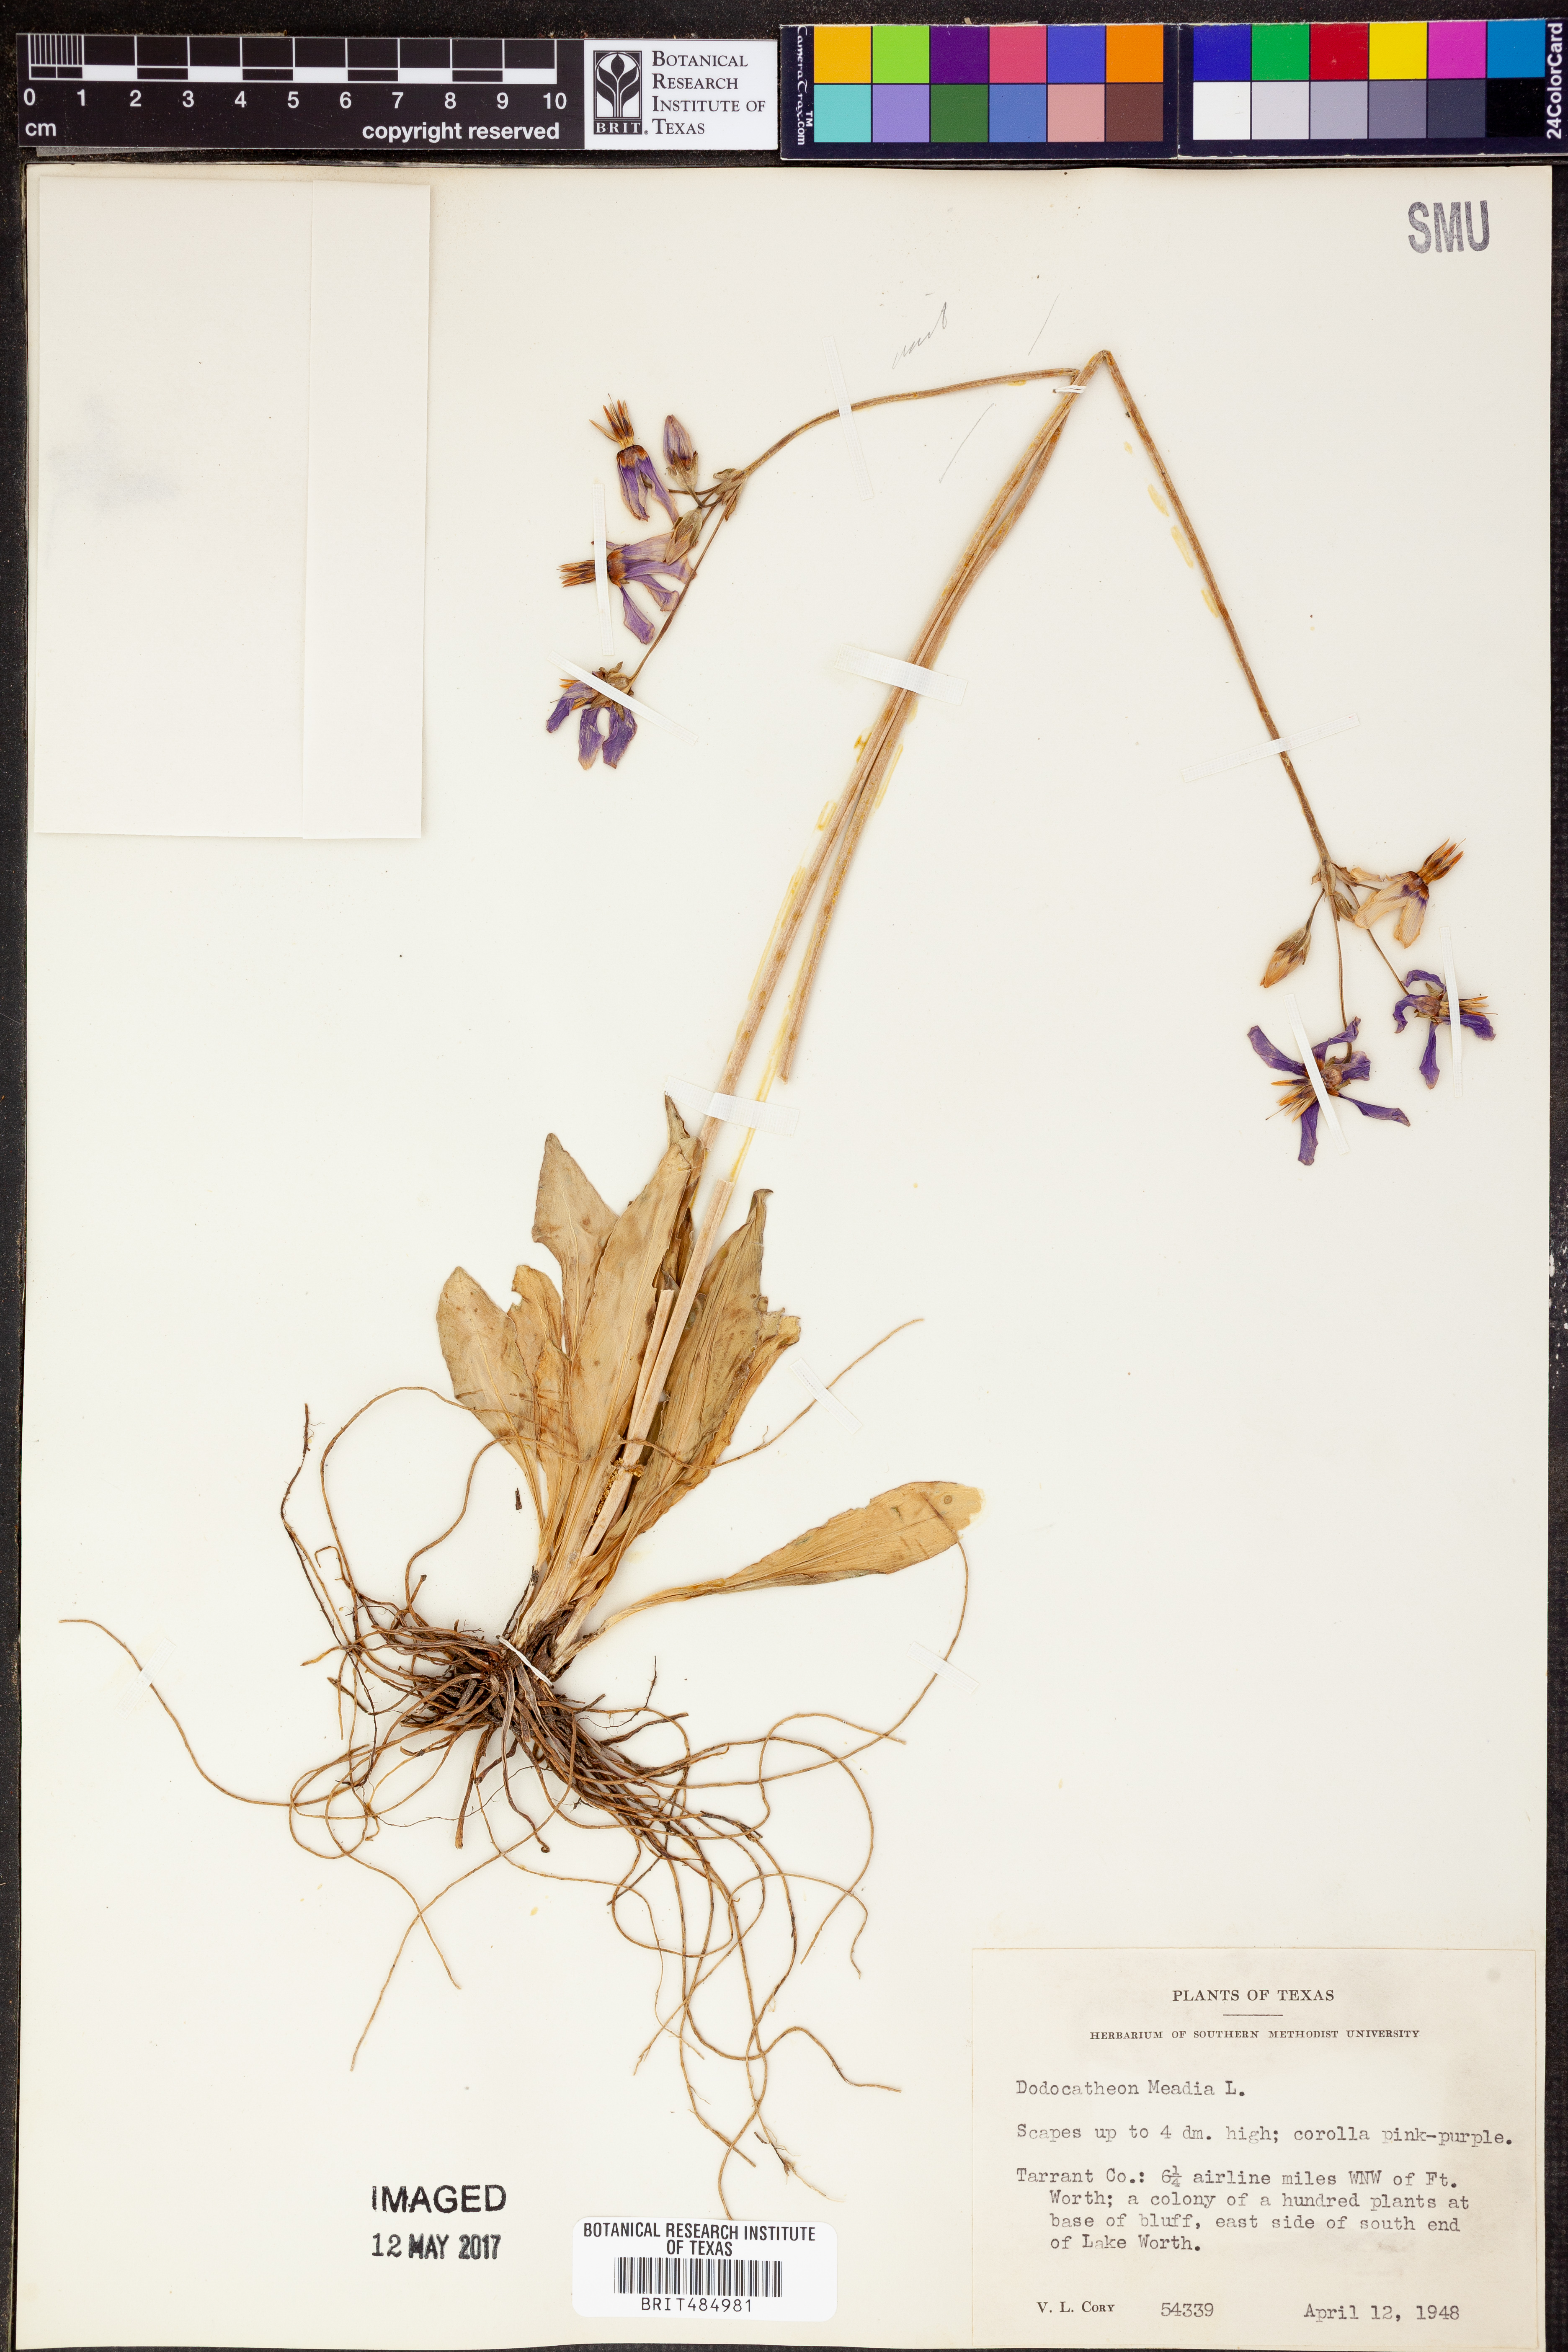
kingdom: Plantae
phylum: Tracheophyta
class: Magnoliopsida
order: Ericales
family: Primulaceae
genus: Dodecatheon
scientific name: Dodecatheon meadia
